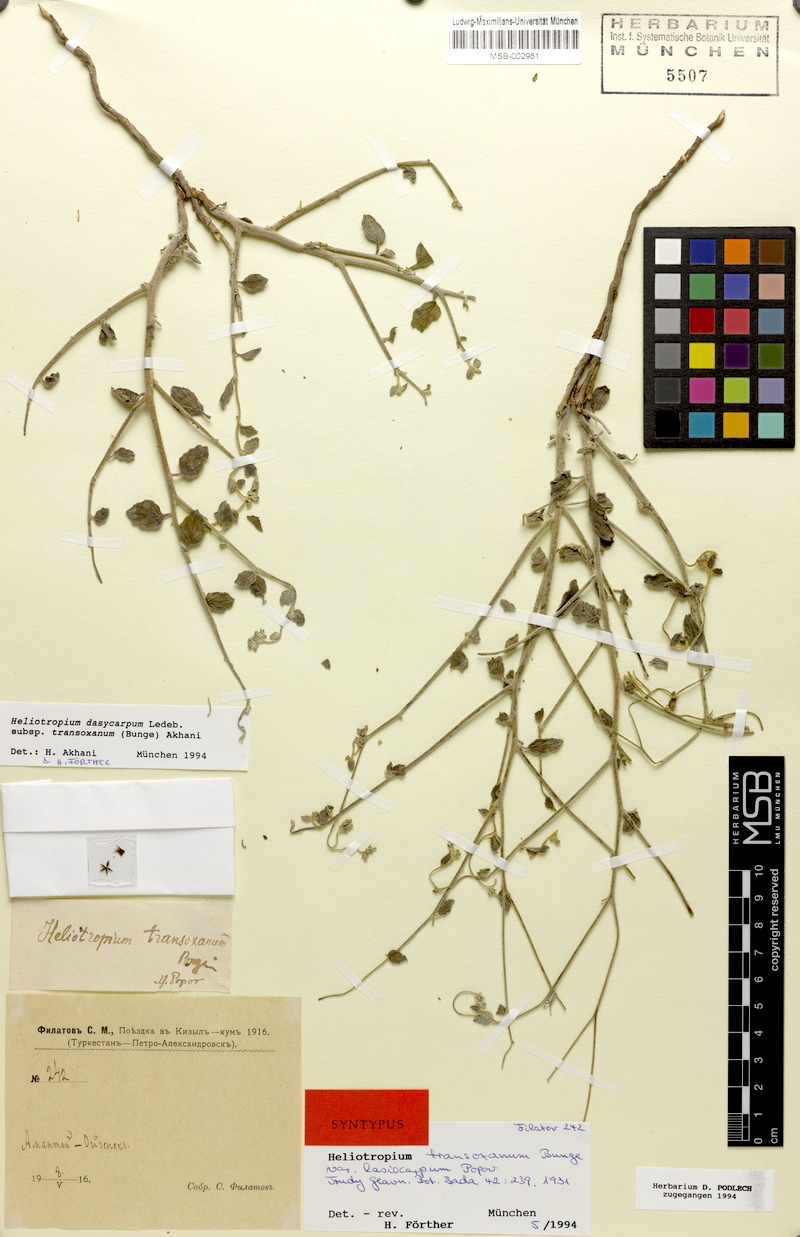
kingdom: Plantae
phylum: Tracheophyta
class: Magnoliopsida
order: Boraginales
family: Heliotropiaceae
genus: Heliotropium
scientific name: Heliotropium dasycarpum
